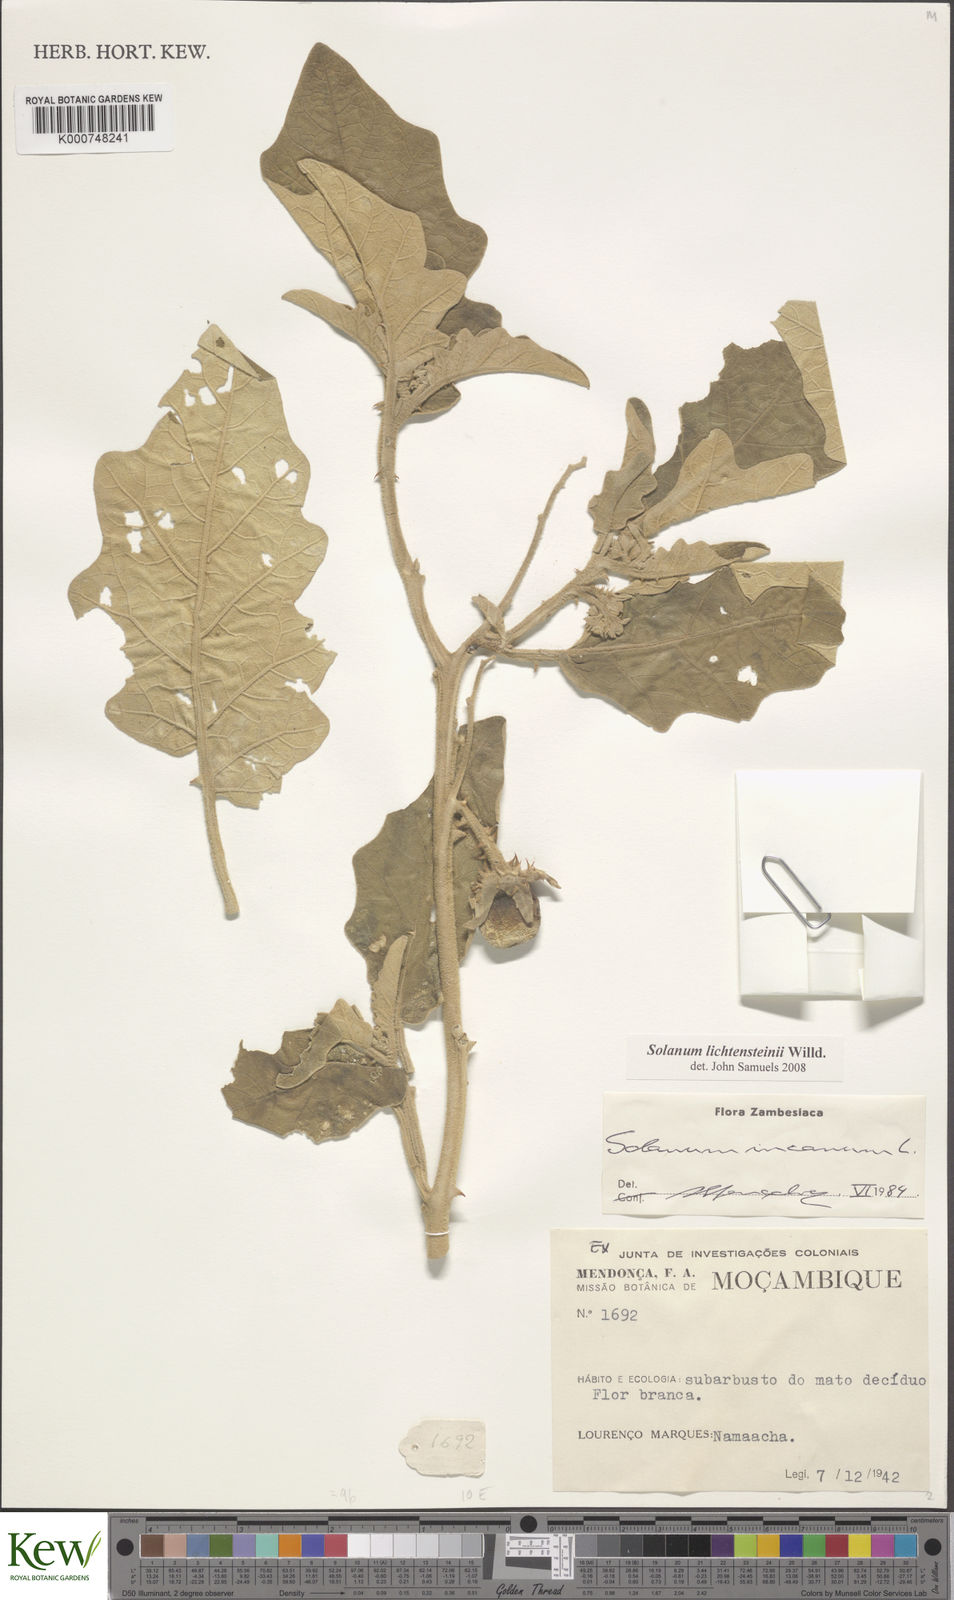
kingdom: Plantae
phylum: Tracheophyta
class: Magnoliopsida
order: Solanales
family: Solanaceae
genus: Solanum
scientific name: Solanum lichtensteinii
